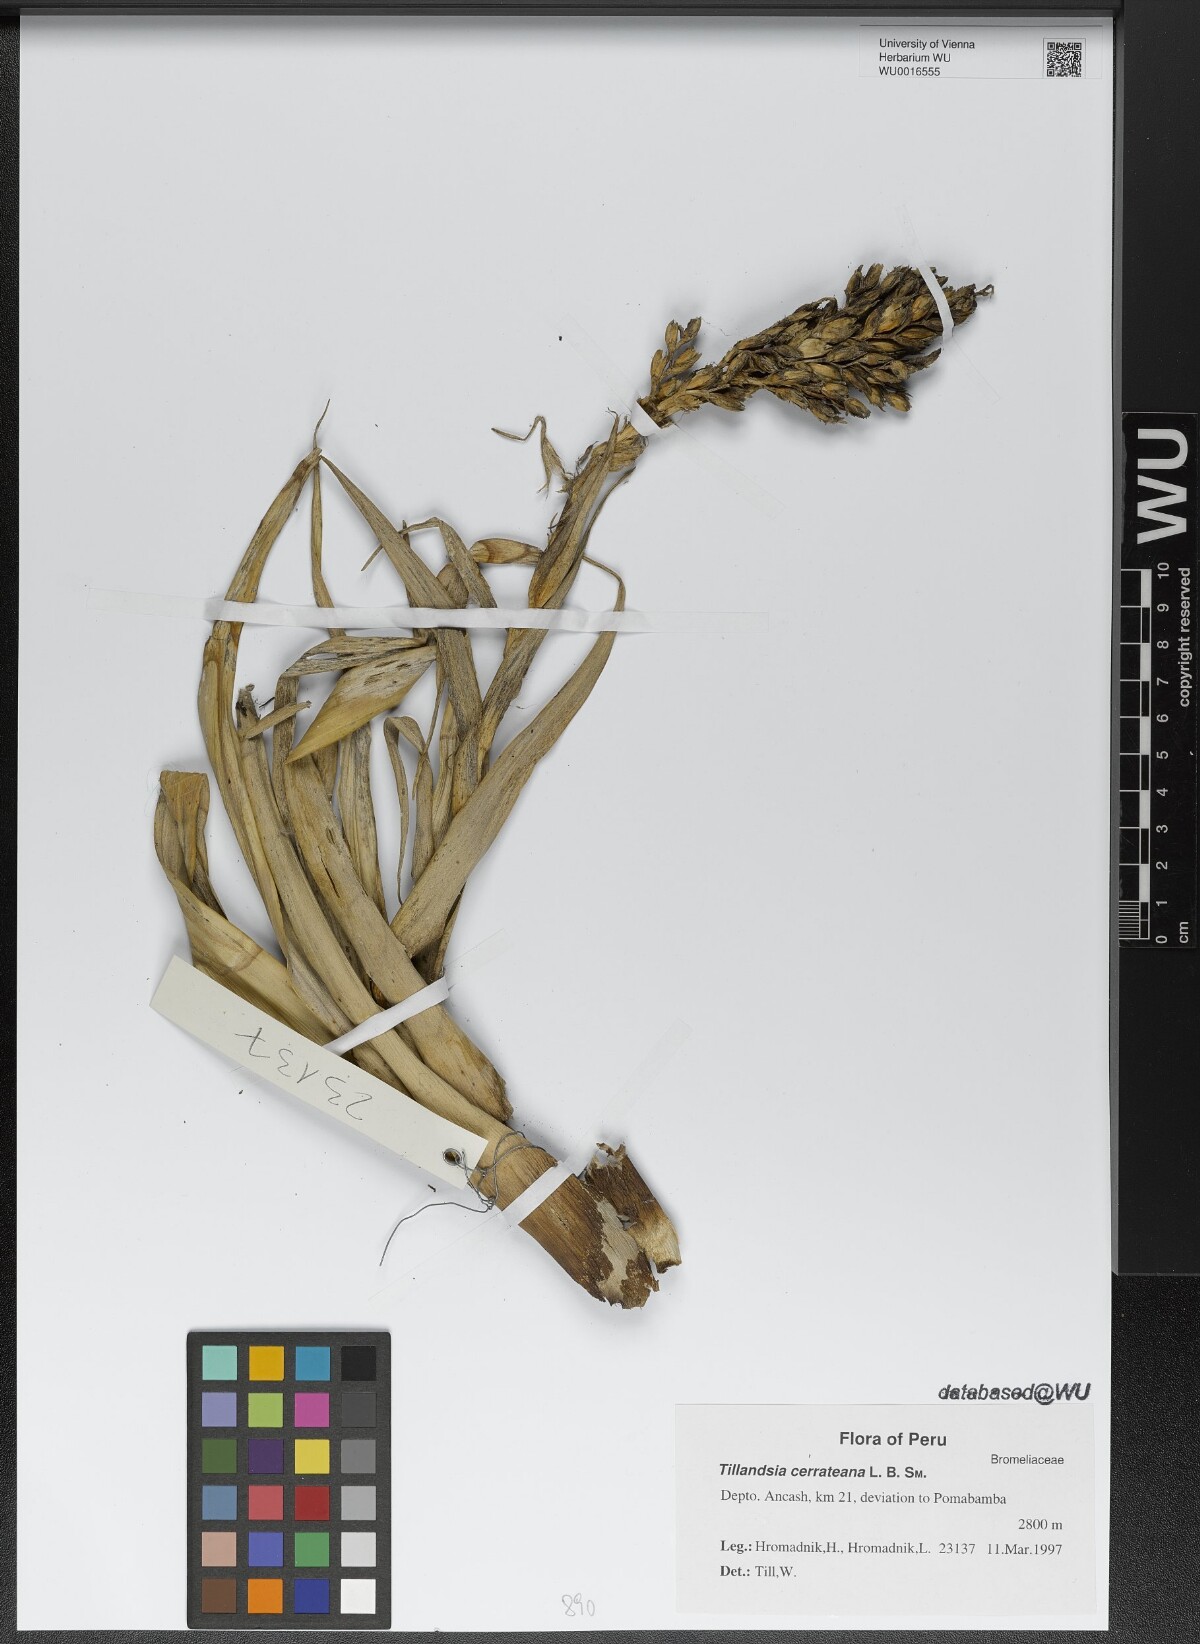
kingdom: Plantae
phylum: Tracheophyta
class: Liliopsida
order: Poales
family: Bromeliaceae
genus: Tillandsia
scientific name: Tillandsia cerrateana
